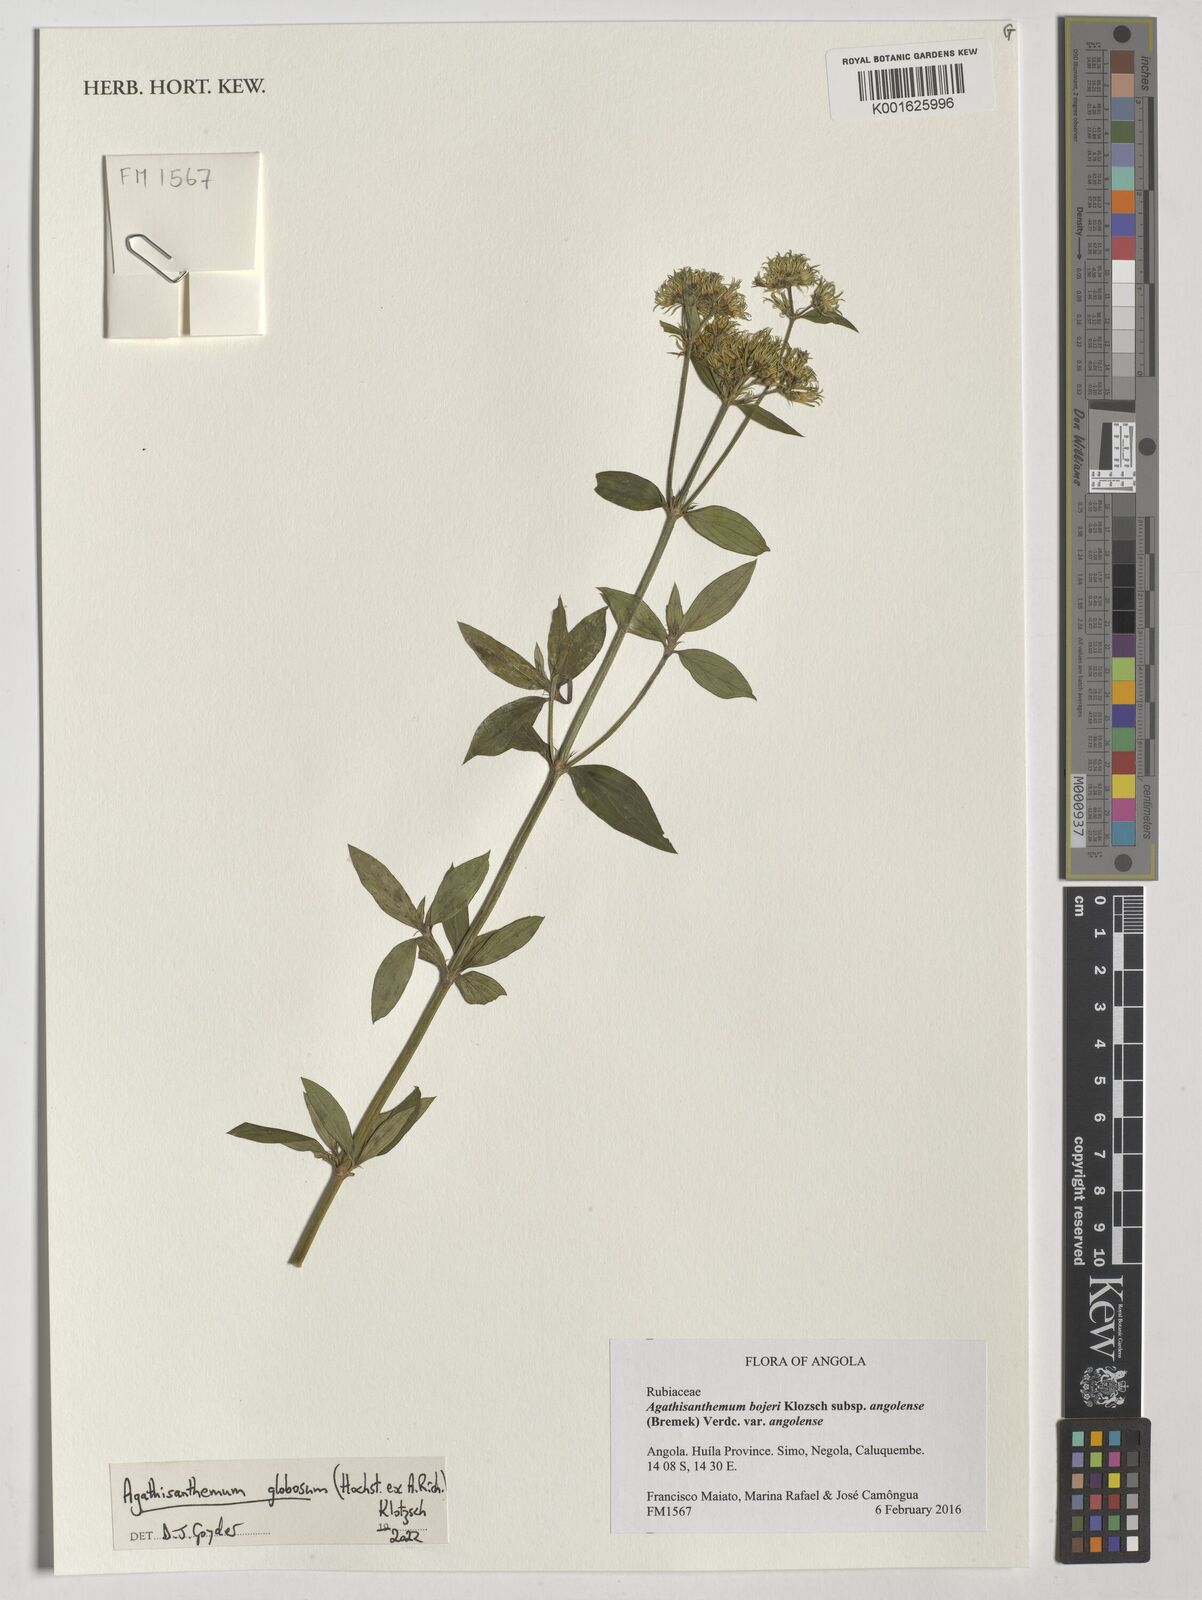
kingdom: Plantae
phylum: Tracheophyta
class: Magnoliopsida
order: Gentianales
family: Rubiaceae
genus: Agathisanthemum
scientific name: Agathisanthemum globosum
